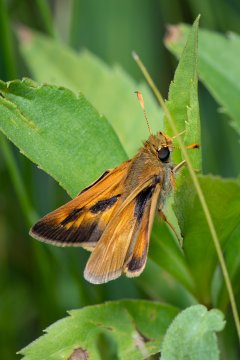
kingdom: Animalia
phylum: Arthropoda
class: Insecta
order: Lepidoptera
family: Hesperiidae
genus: Polites
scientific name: Polites
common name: Long Dash Skipper
